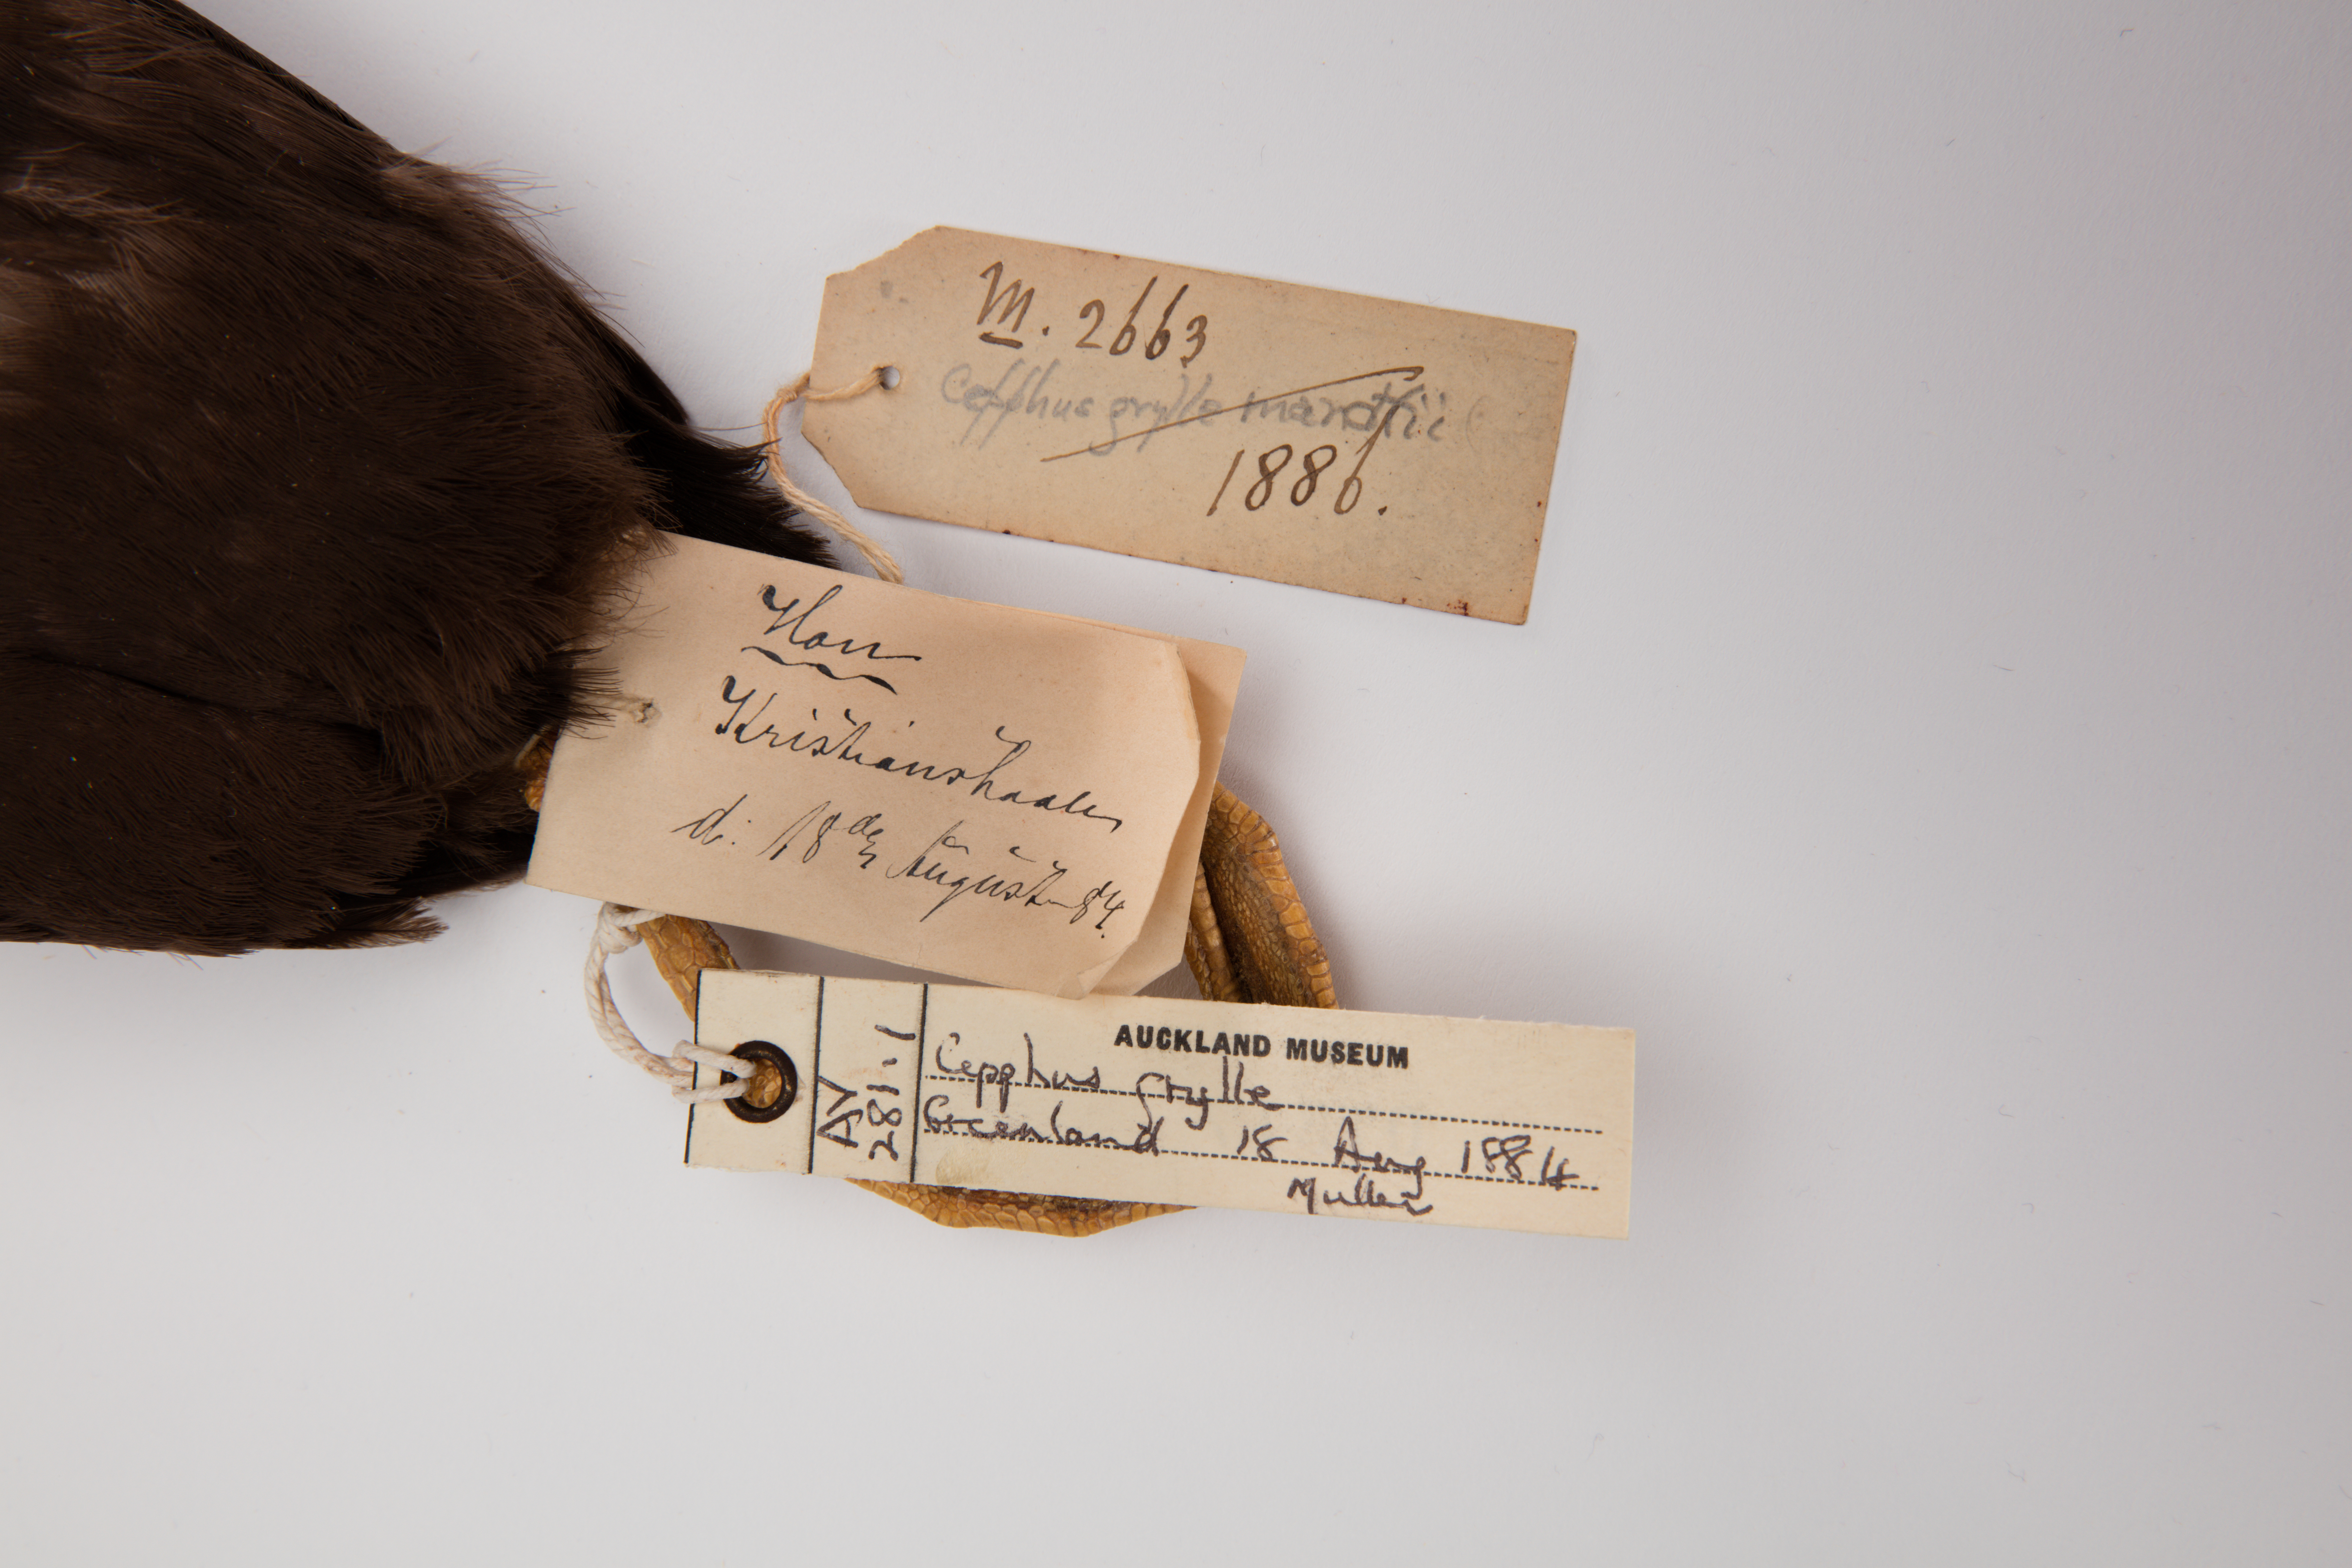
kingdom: Animalia
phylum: Chordata
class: Aves
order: Charadriiformes
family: Alcidae
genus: Cepphus
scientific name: Cepphus grylle
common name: Black guillemot
